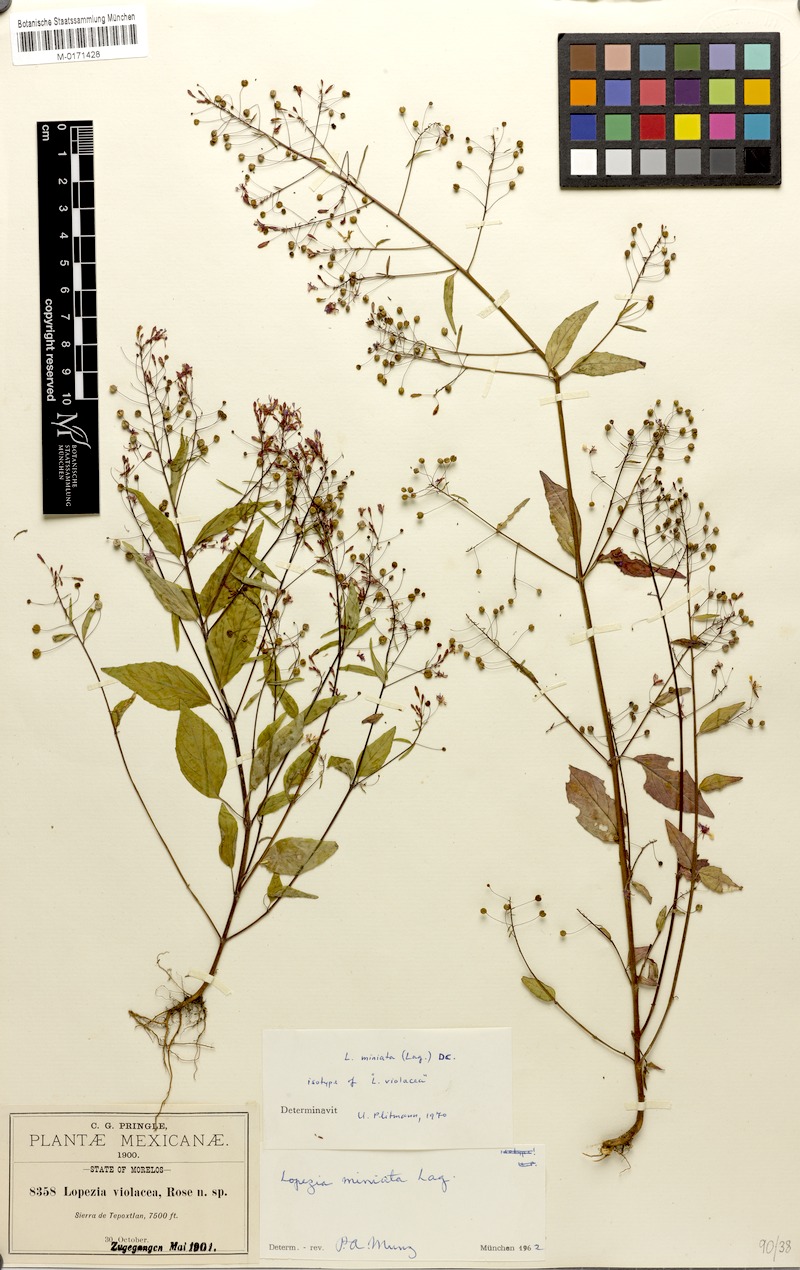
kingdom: Plantae
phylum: Tracheophyta
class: Magnoliopsida
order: Myrtales
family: Onagraceae
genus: Lopezia
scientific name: Lopezia miniata
